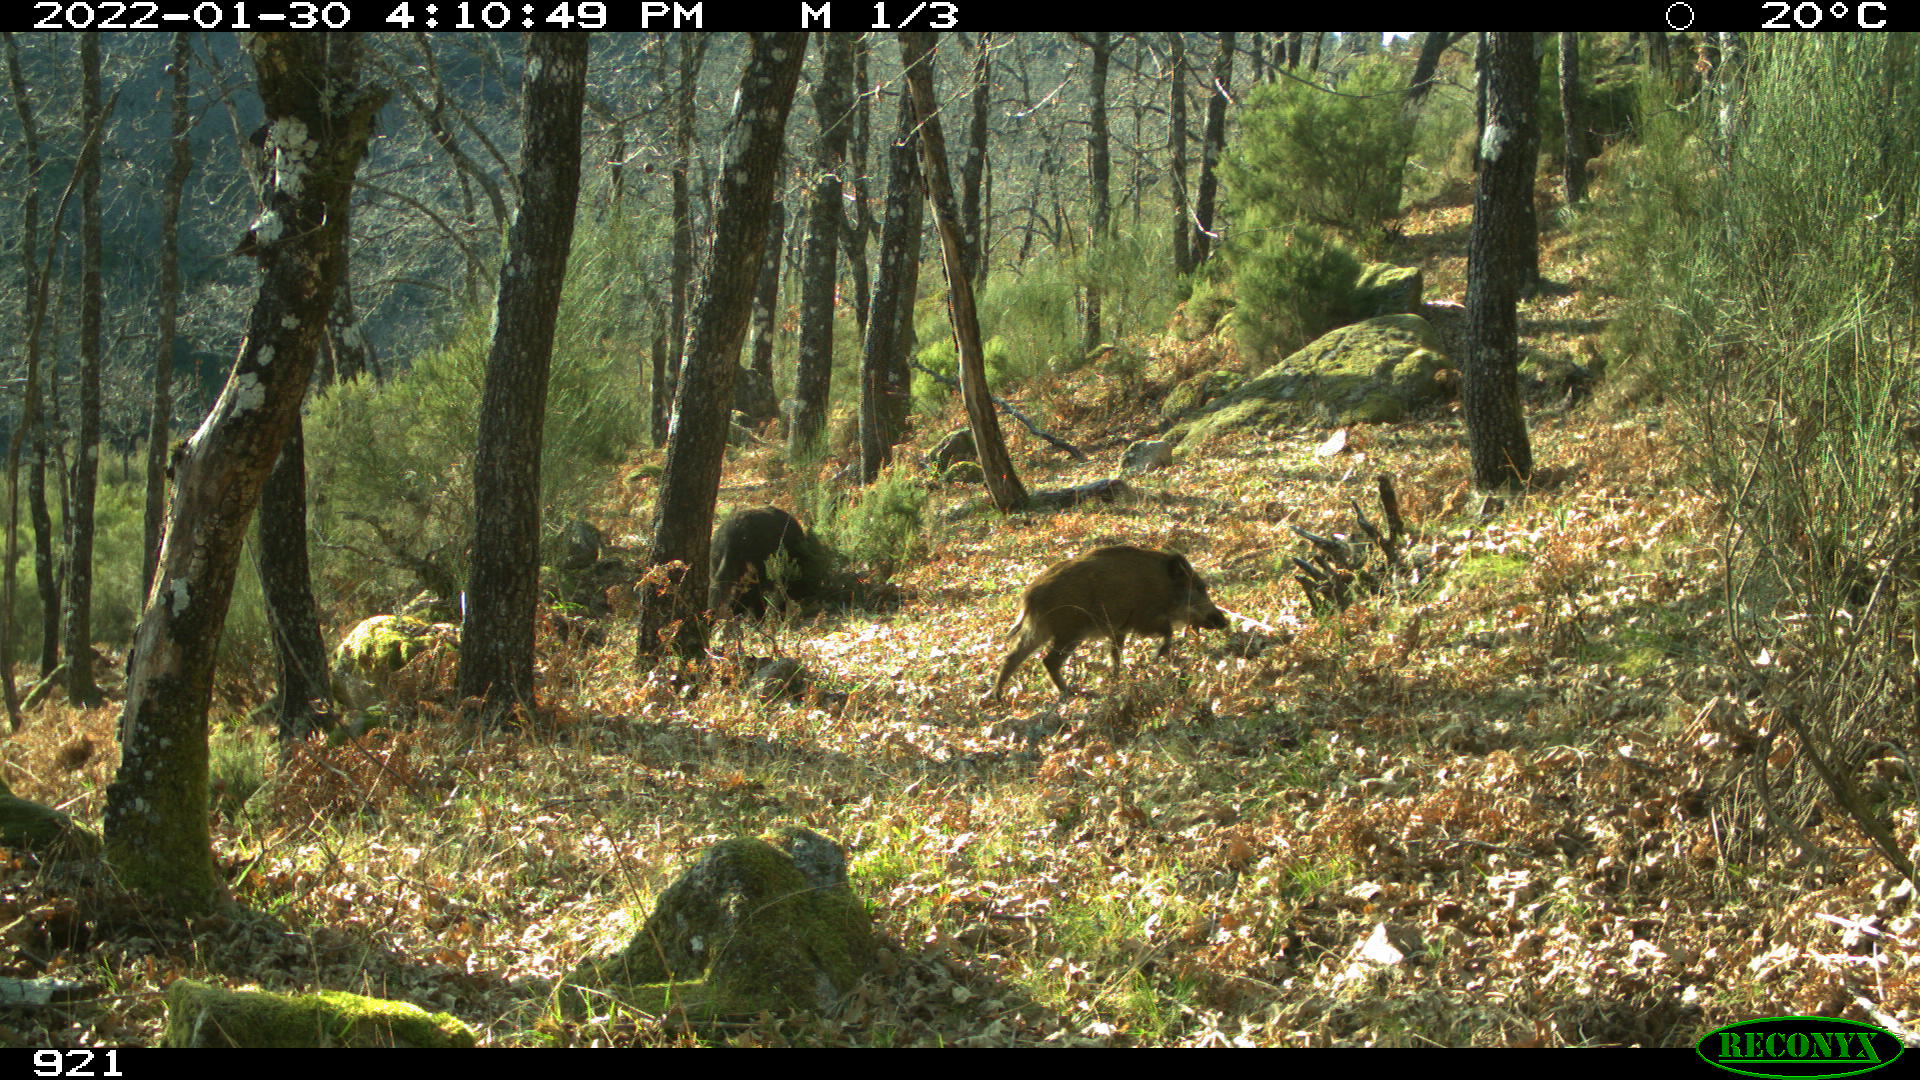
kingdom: Animalia
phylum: Chordata
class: Mammalia
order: Artiodactyla
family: Suidae
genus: Sus
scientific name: Sus scrofa
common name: Wild boar
